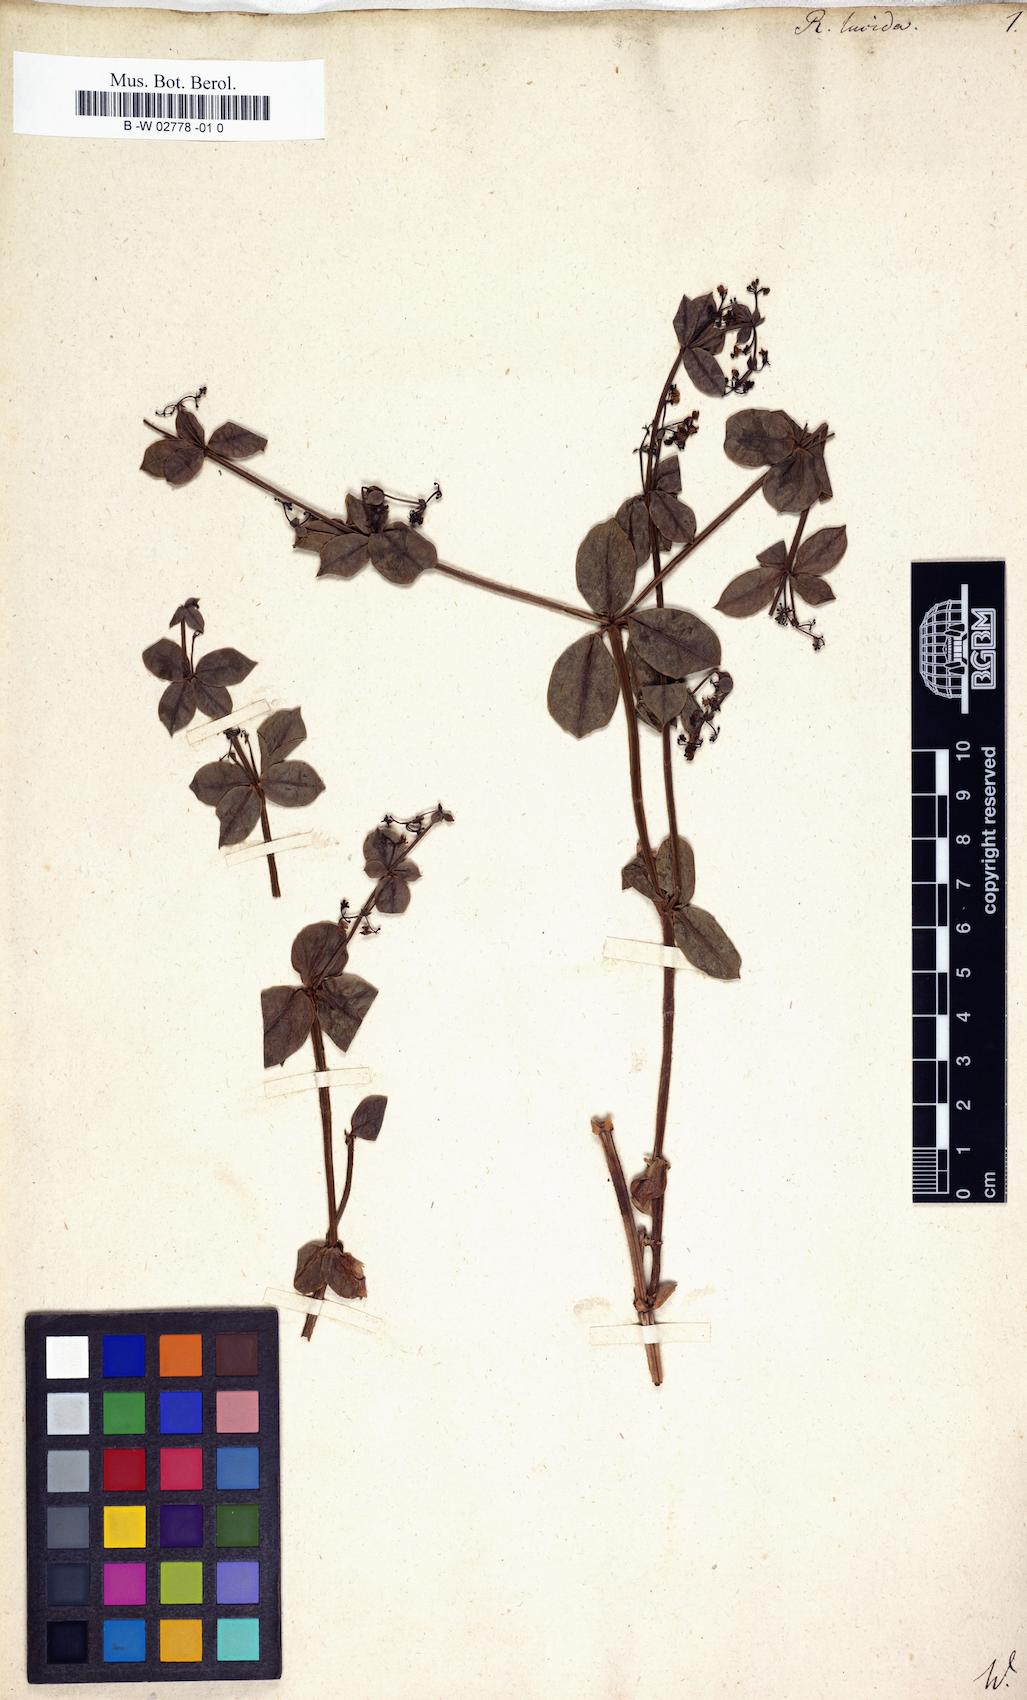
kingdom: Plantae
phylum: Tracheophyta
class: Magnoliopsida
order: Gentianales
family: Rubiaceae
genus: Rubia
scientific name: Rubia lucida
